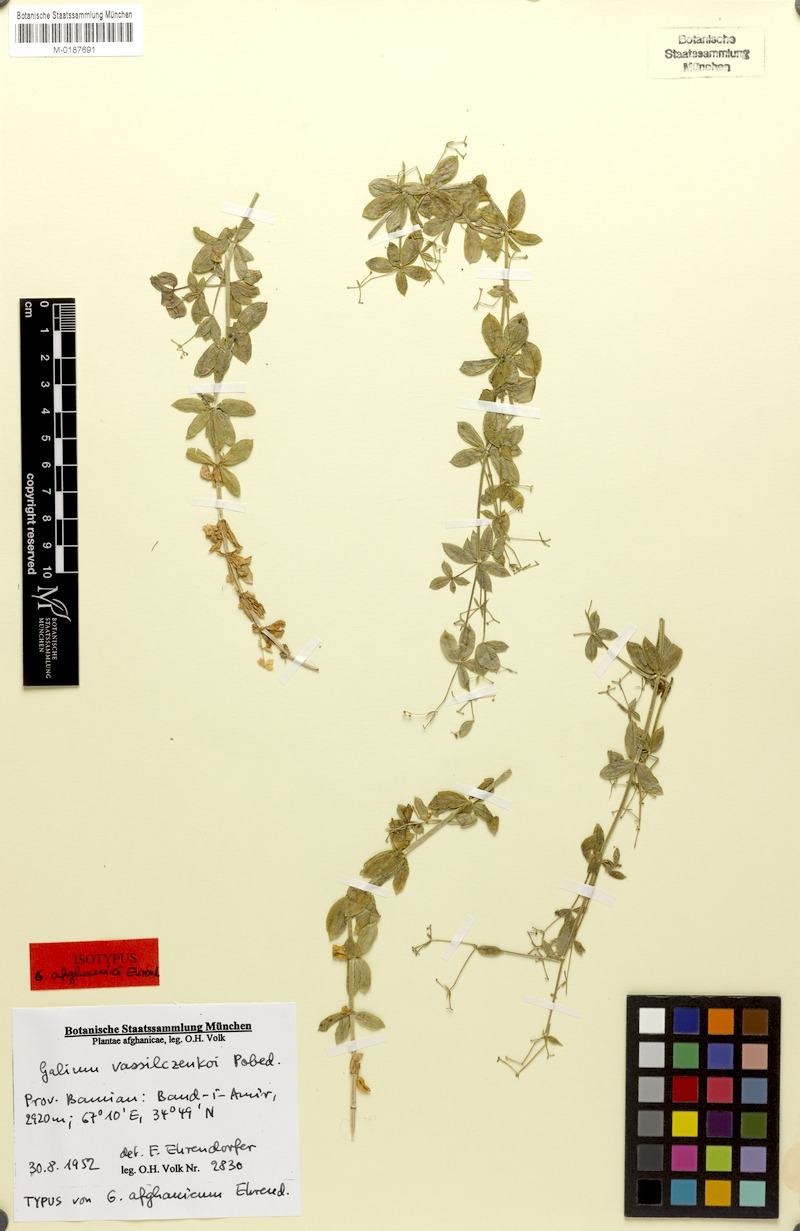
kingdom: Plantae
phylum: Tracheophyta
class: Magnoliopsida
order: Gentianales
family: Rubiaceae
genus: Galium
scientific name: Galium vassilczenkoi
